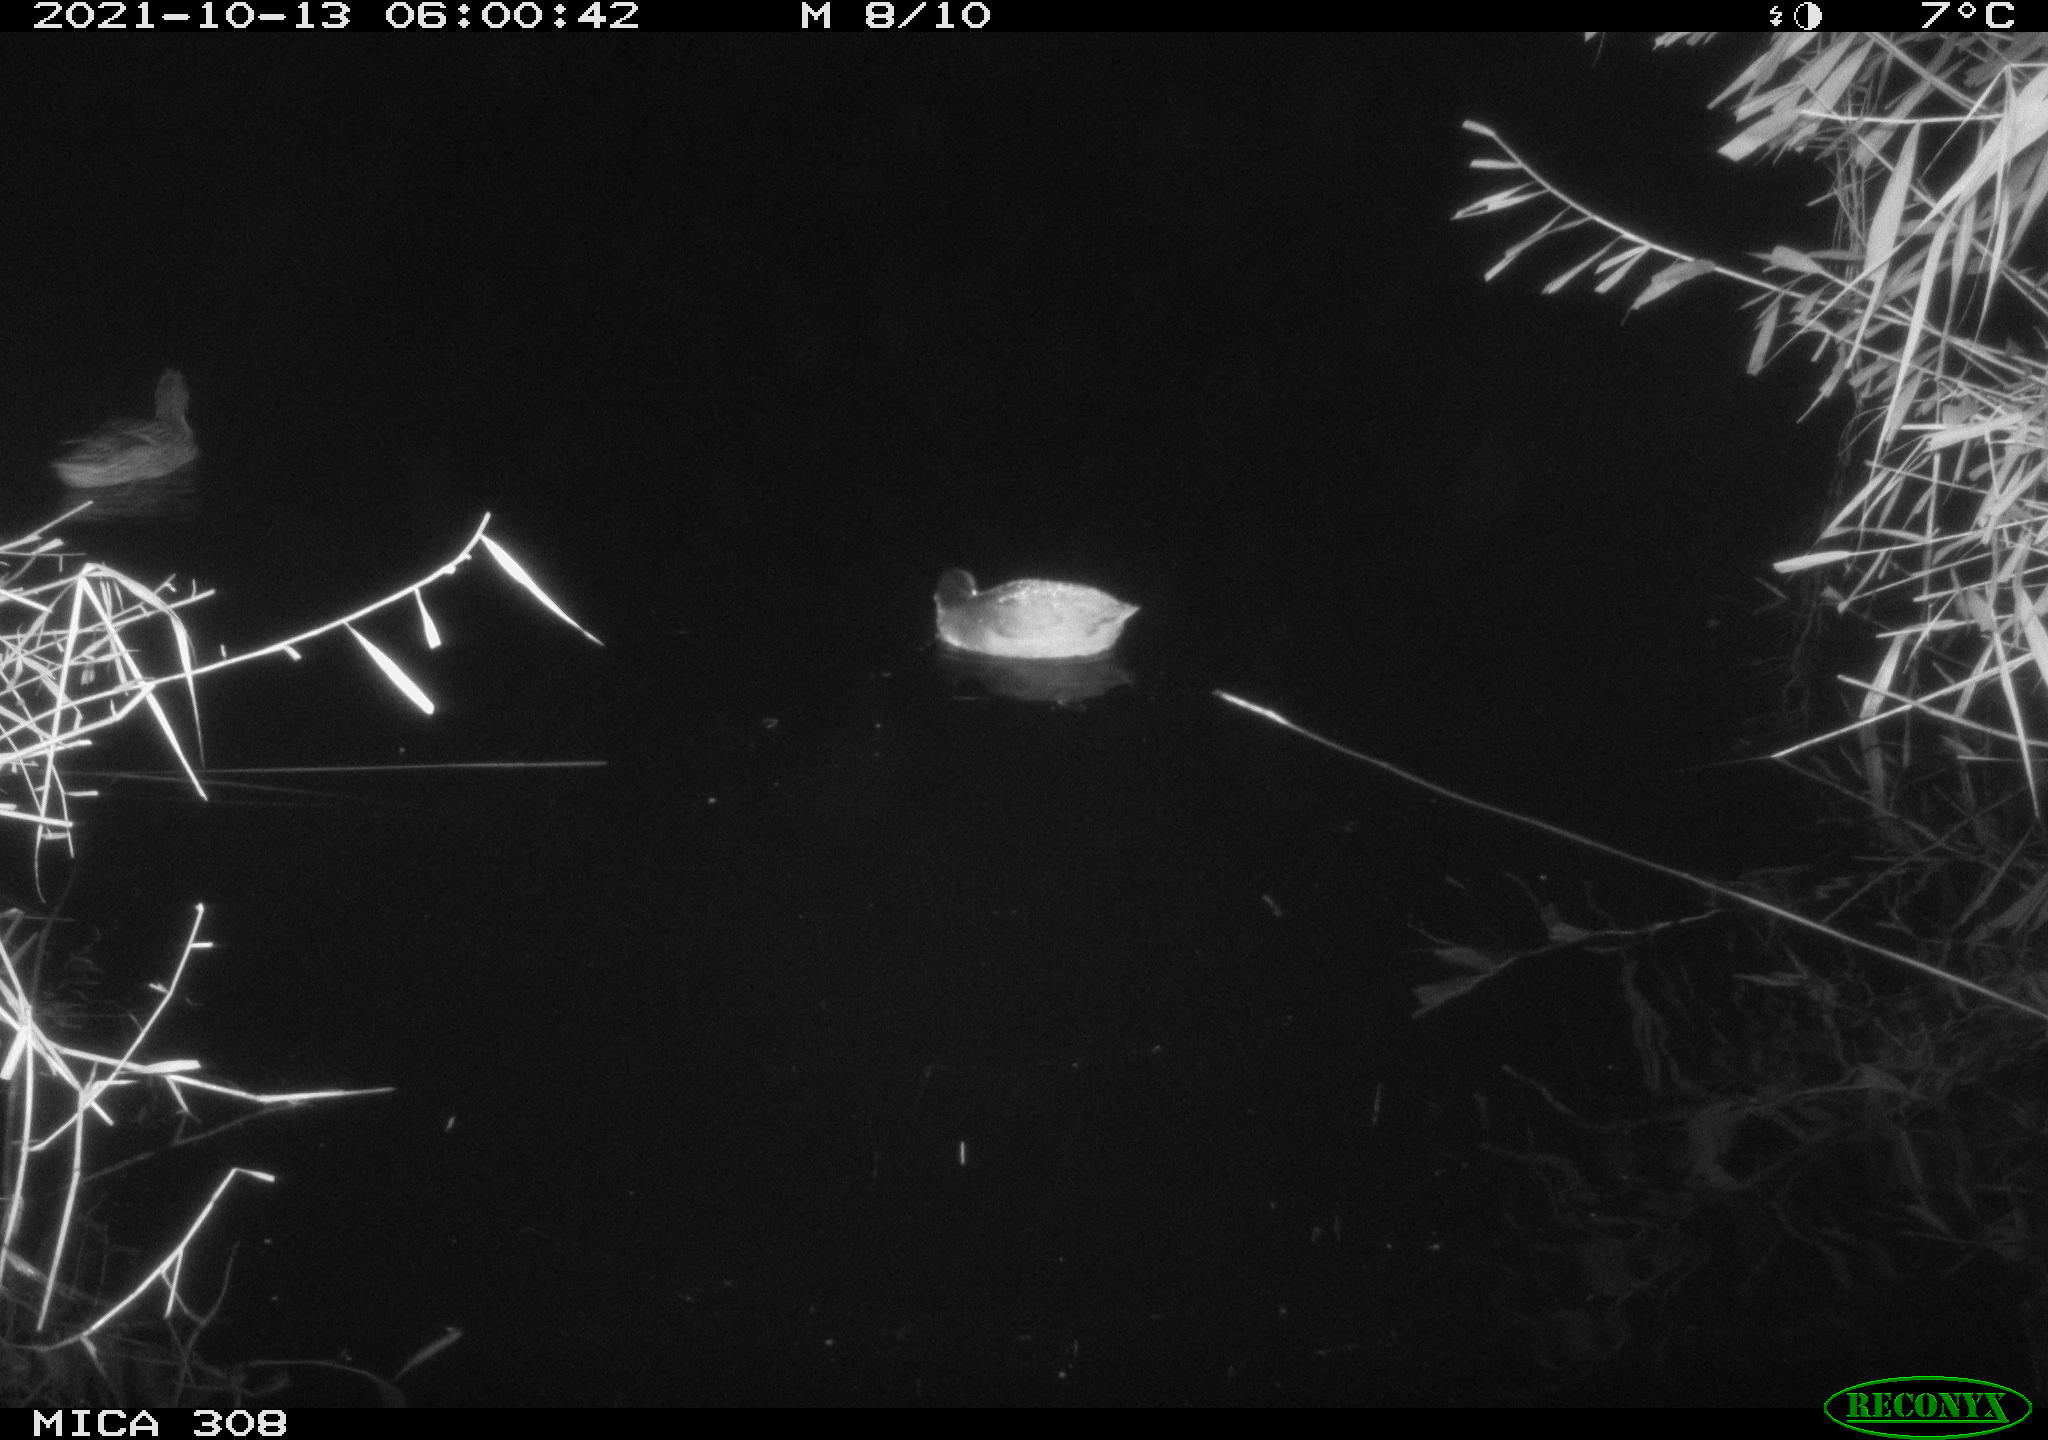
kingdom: Animalia
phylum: Chordata
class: Aves
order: Gruiformes
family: Rallidae
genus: Fulica
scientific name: Fulica atra
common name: Eurasian coot
